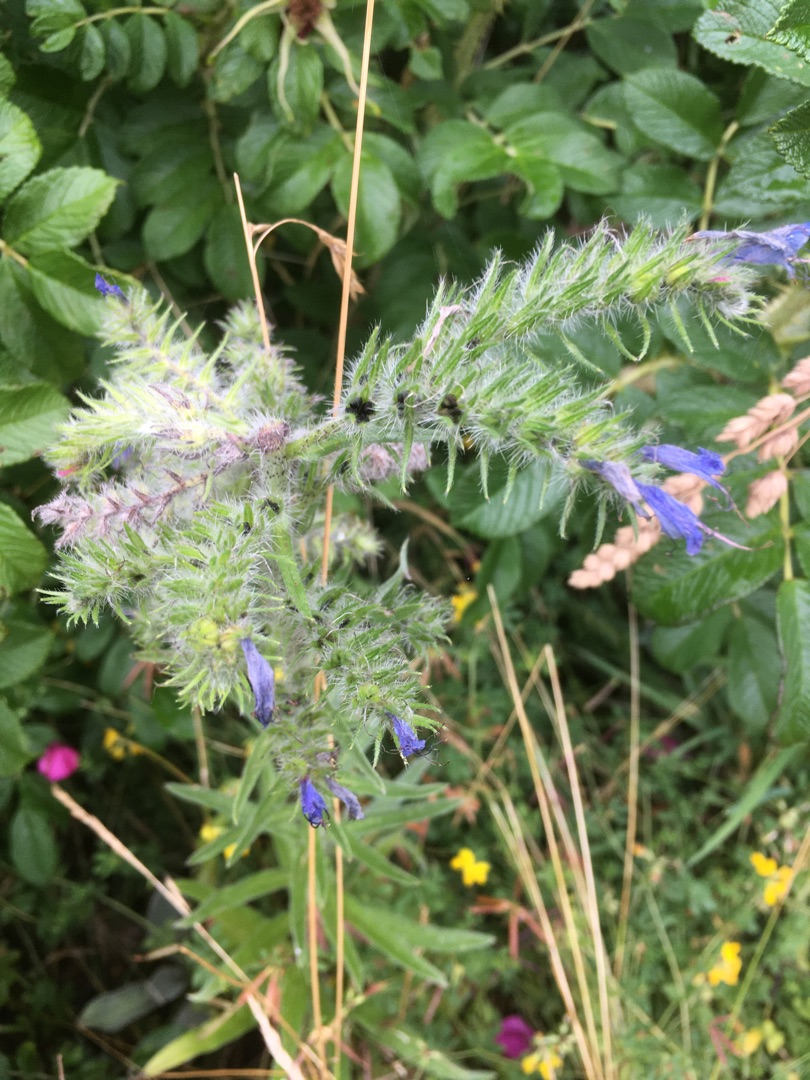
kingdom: Plantae
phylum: Tracheophyta
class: Magnoliopsida
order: Boraginales
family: Boraginaceae
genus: Echium
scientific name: Echium vulgare
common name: Slangehoved
